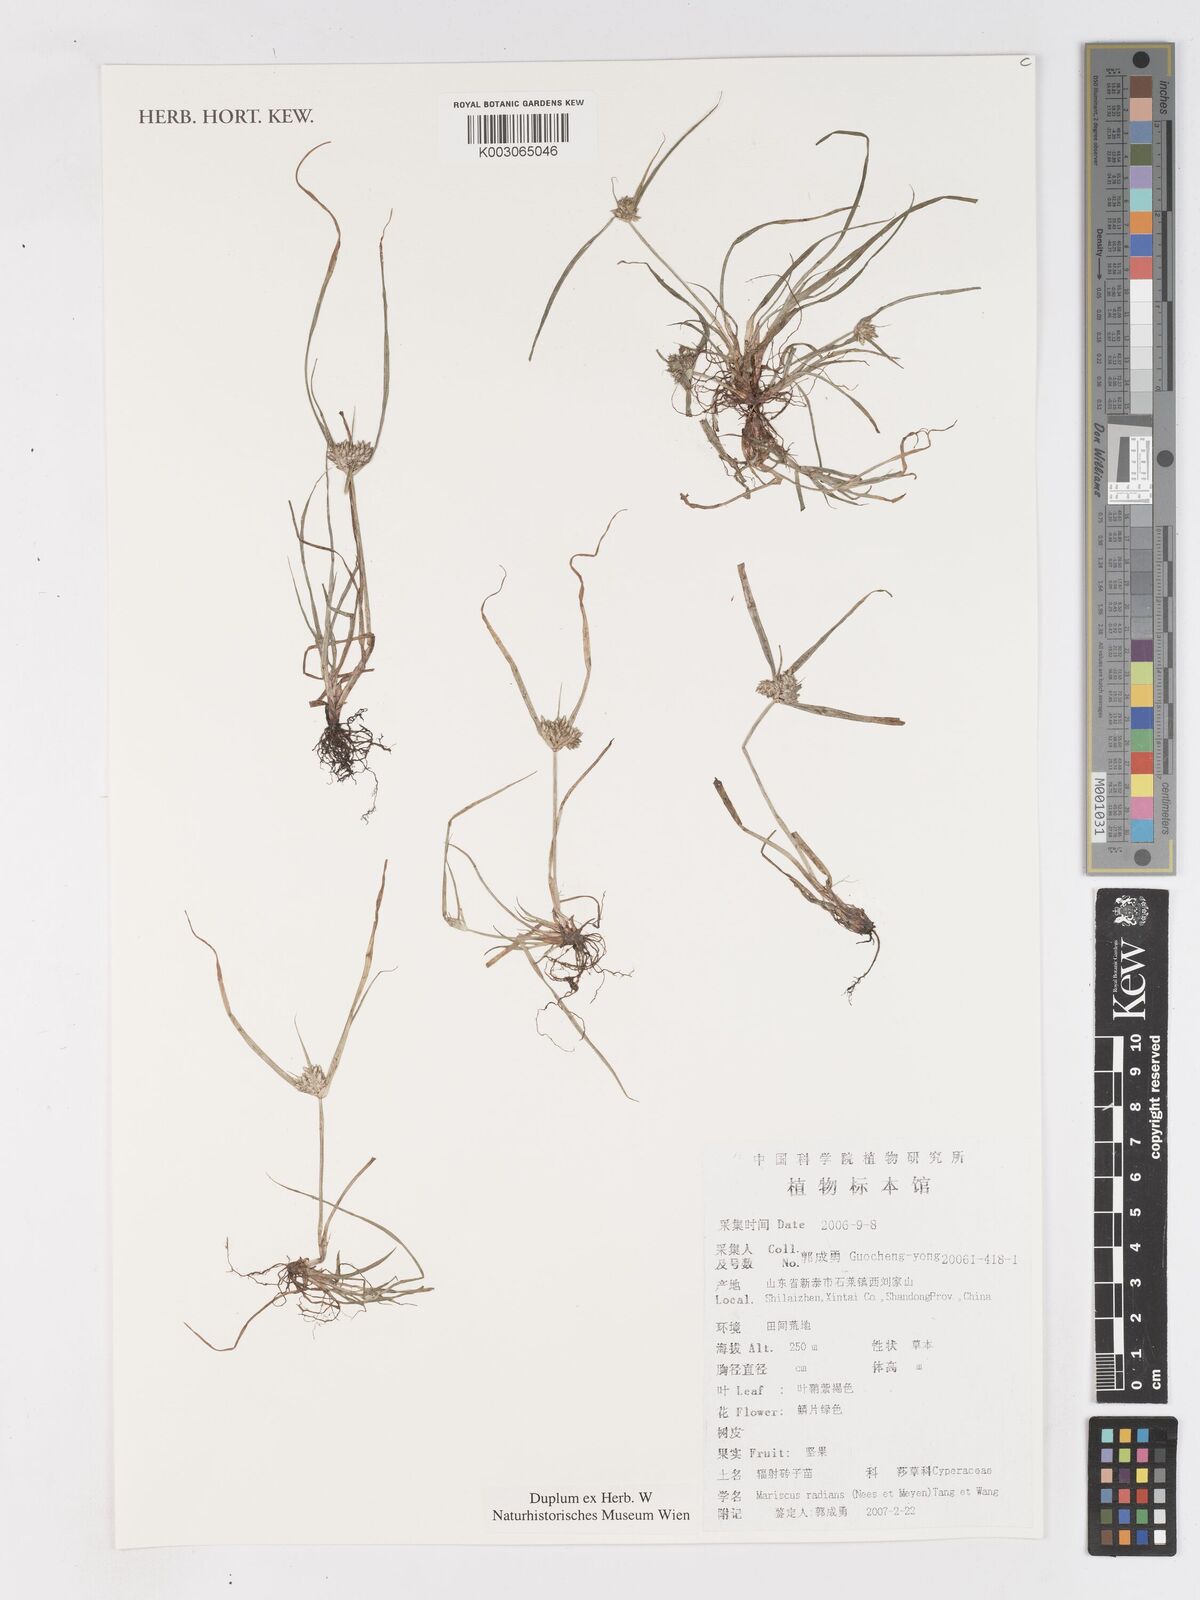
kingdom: Plantae
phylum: Tracheophyta
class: Liliopsida
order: Poales
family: Cyperaceae
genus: Cyperus
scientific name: Cyperus radians
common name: Short-stem cyperus
